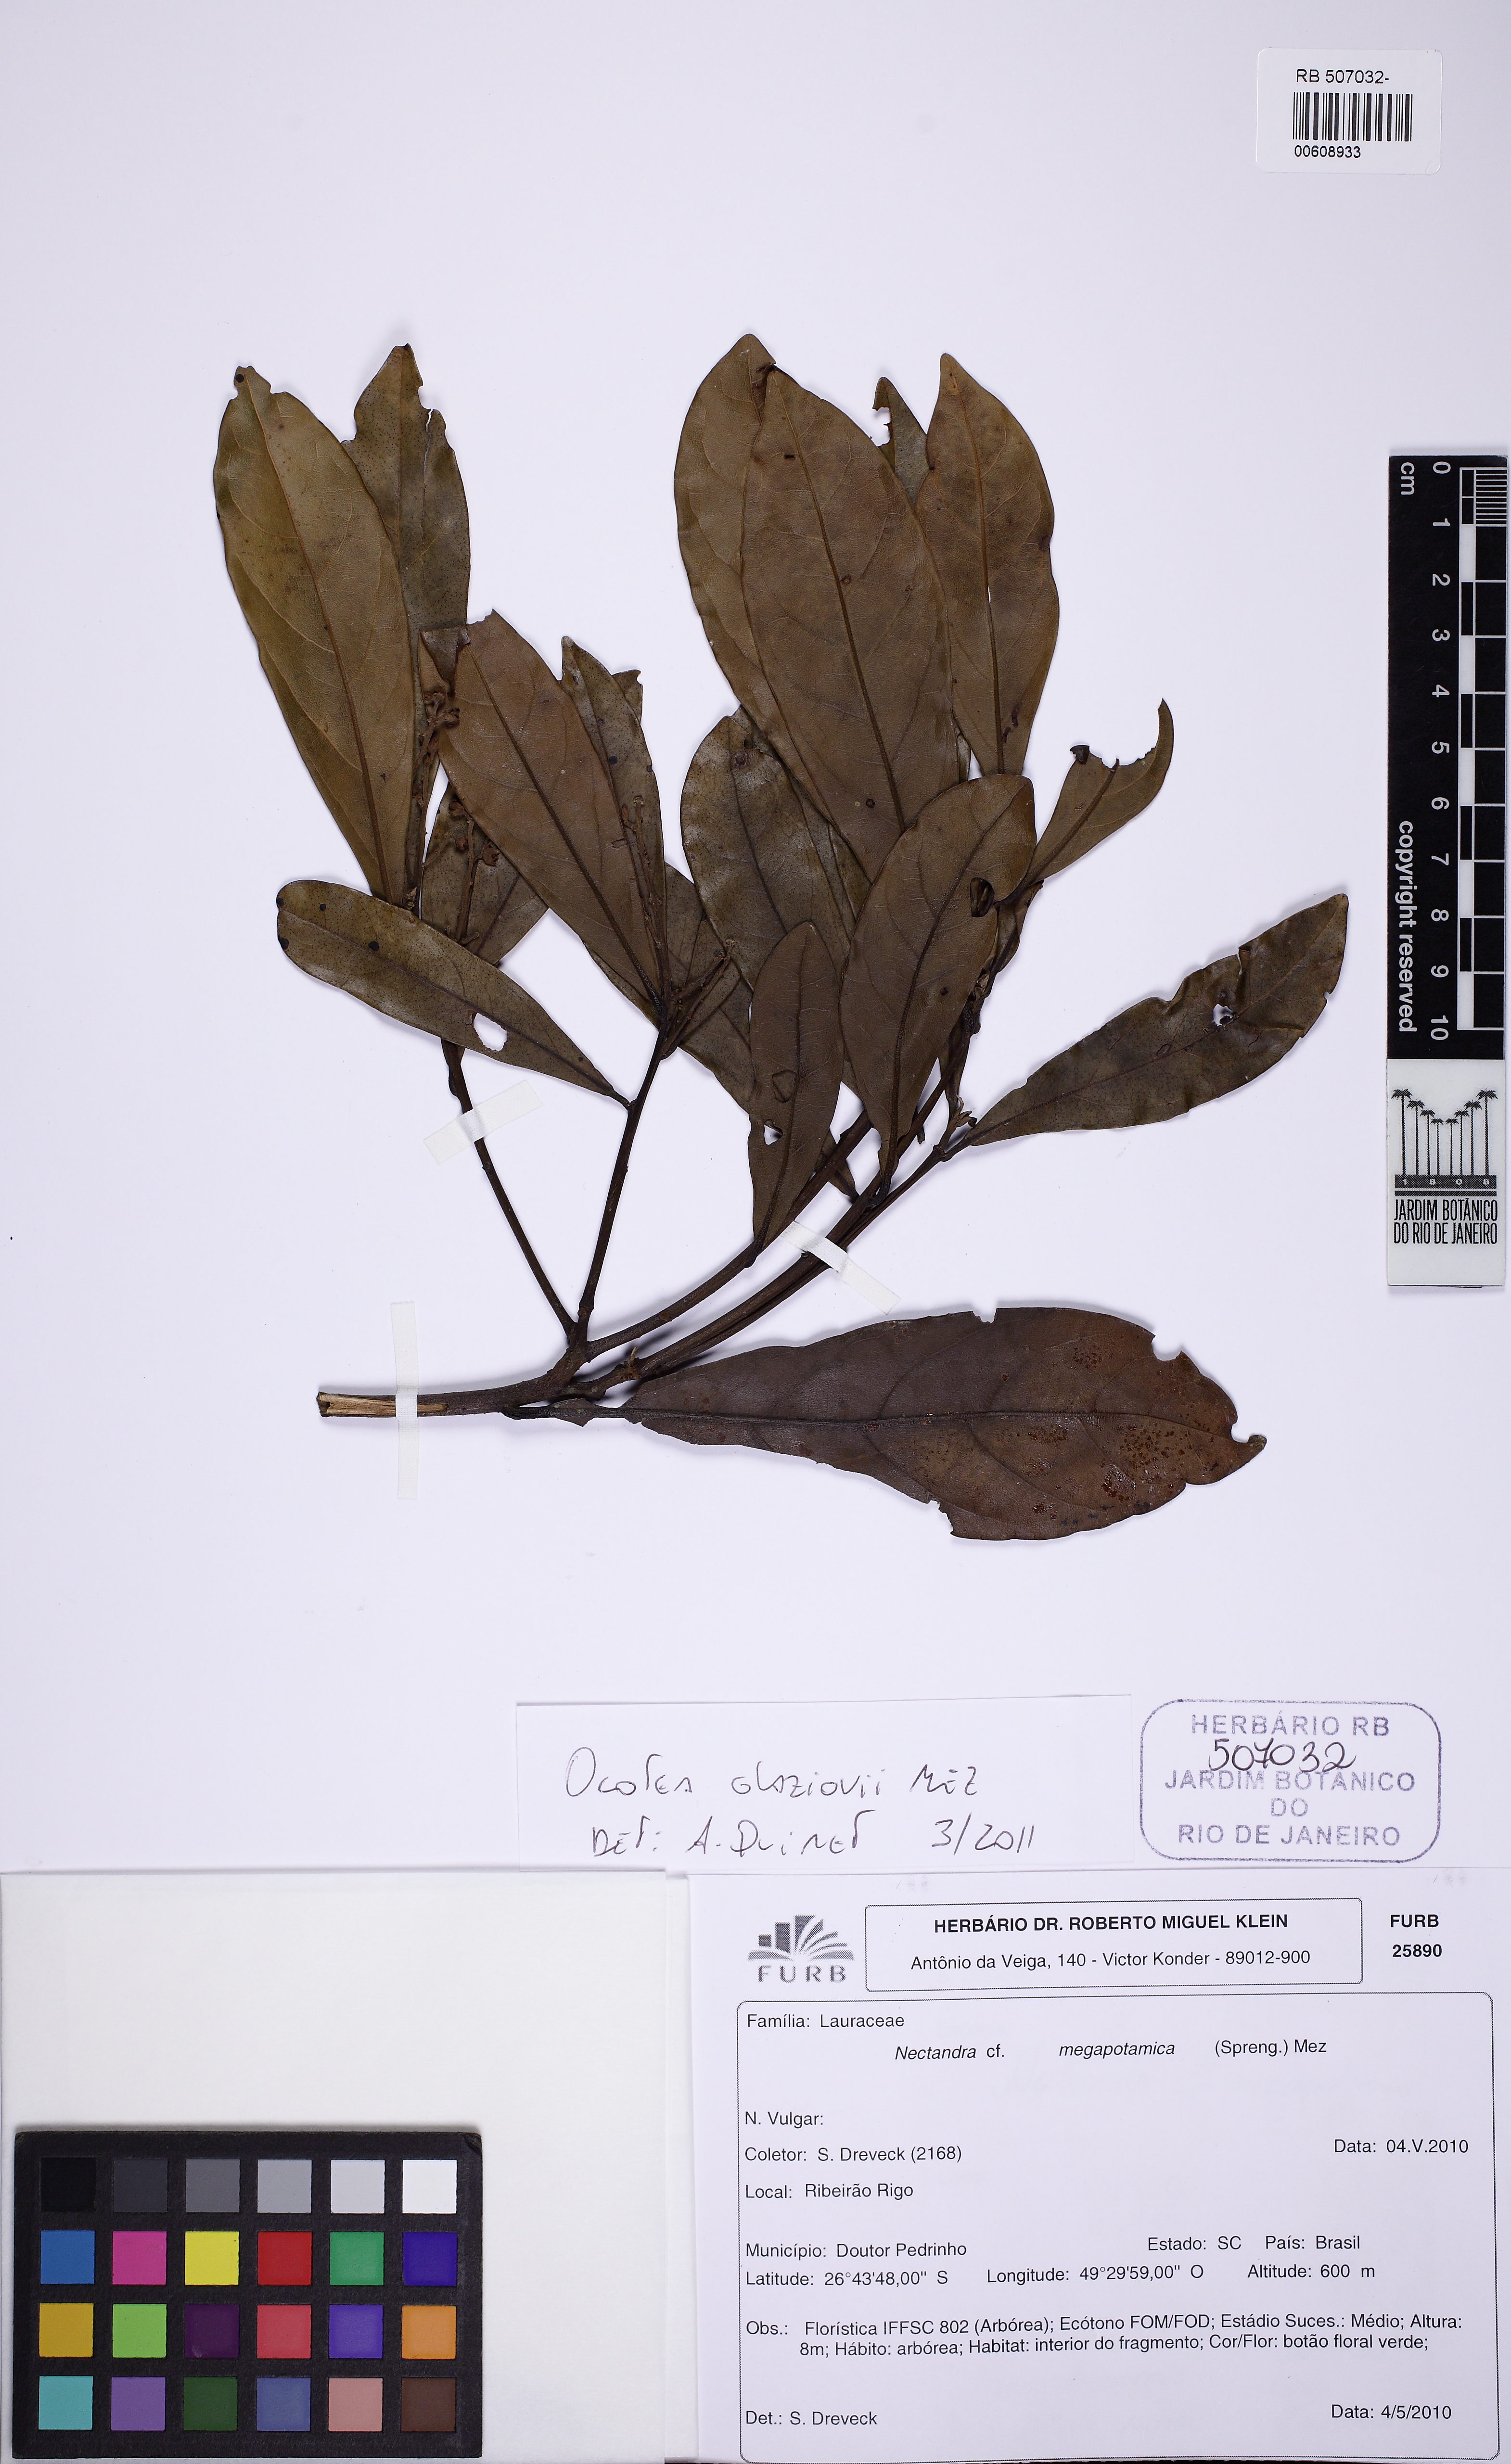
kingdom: Plantae
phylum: Tracheophyta
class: Magnoliopsida
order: Laurales
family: Lauraceae
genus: Ocotea
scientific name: Ocotea glaziovii
